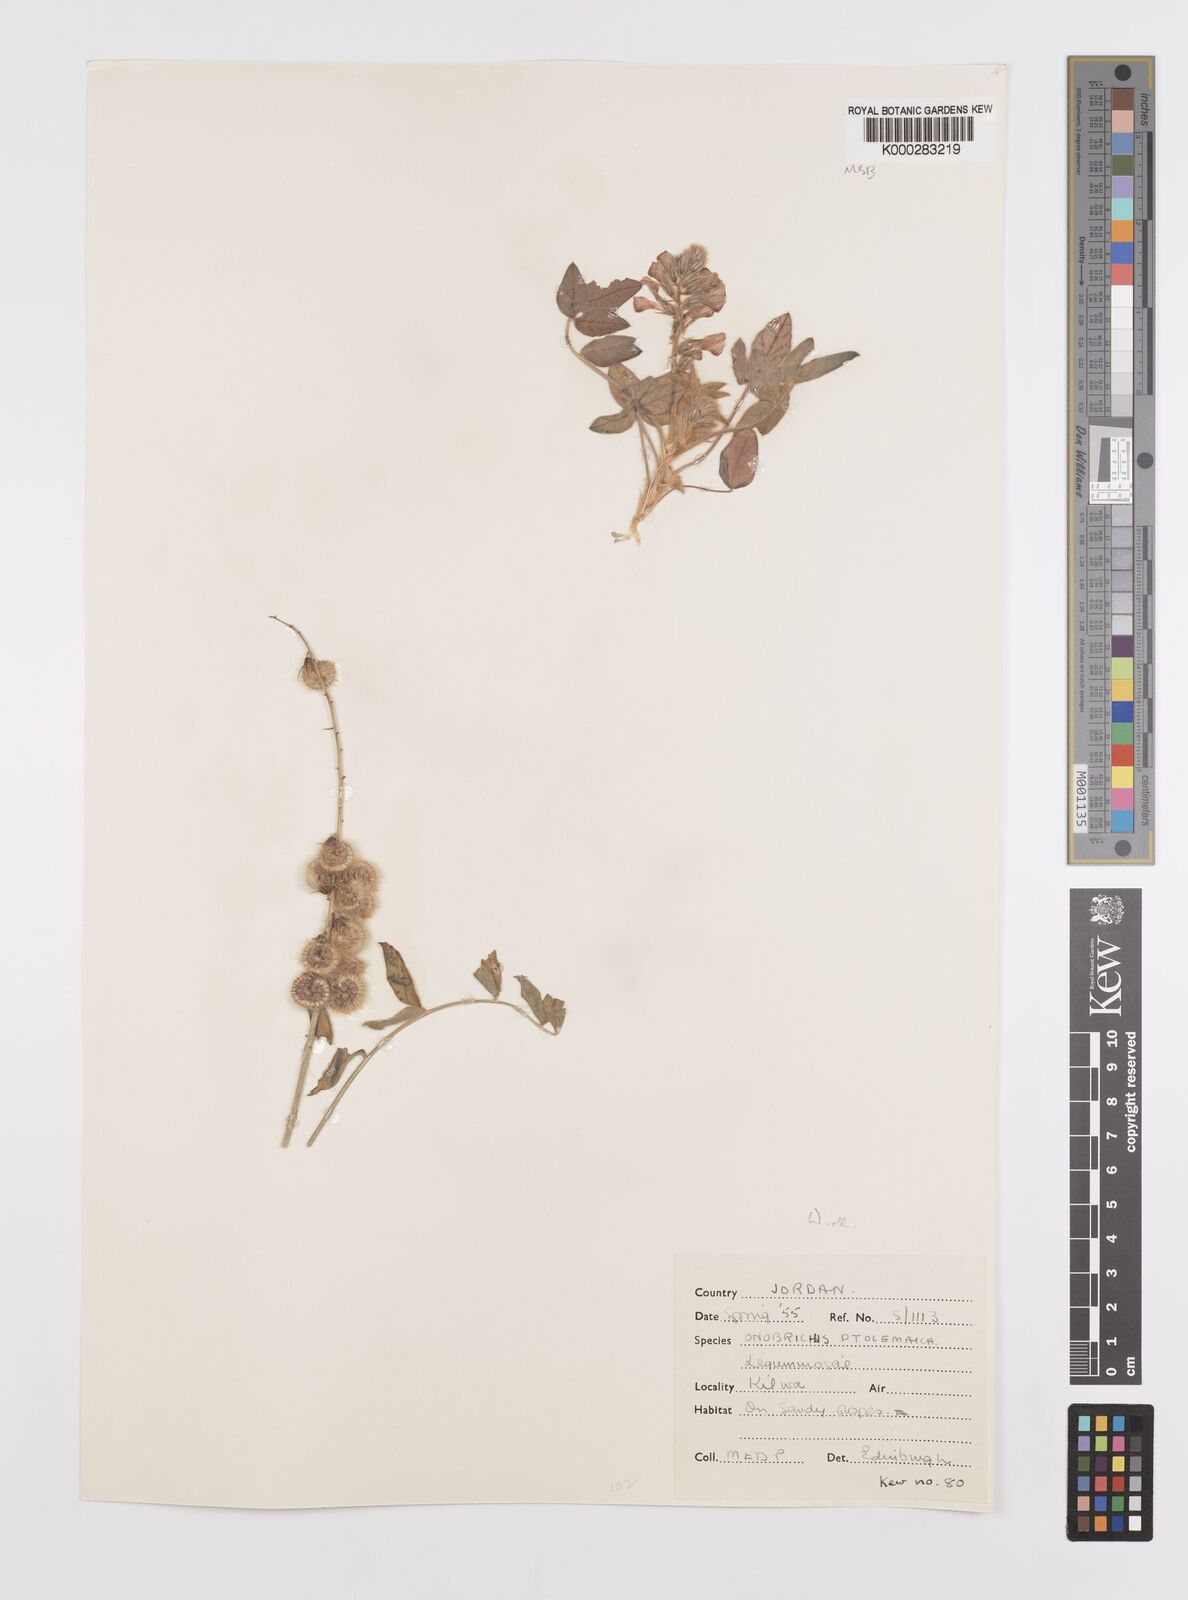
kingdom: Plantae
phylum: Tracheophyta
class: Magnoliopsida
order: Fabales
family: Fabaceae
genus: Onobrychis
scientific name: Onobrychis ptolemaica
